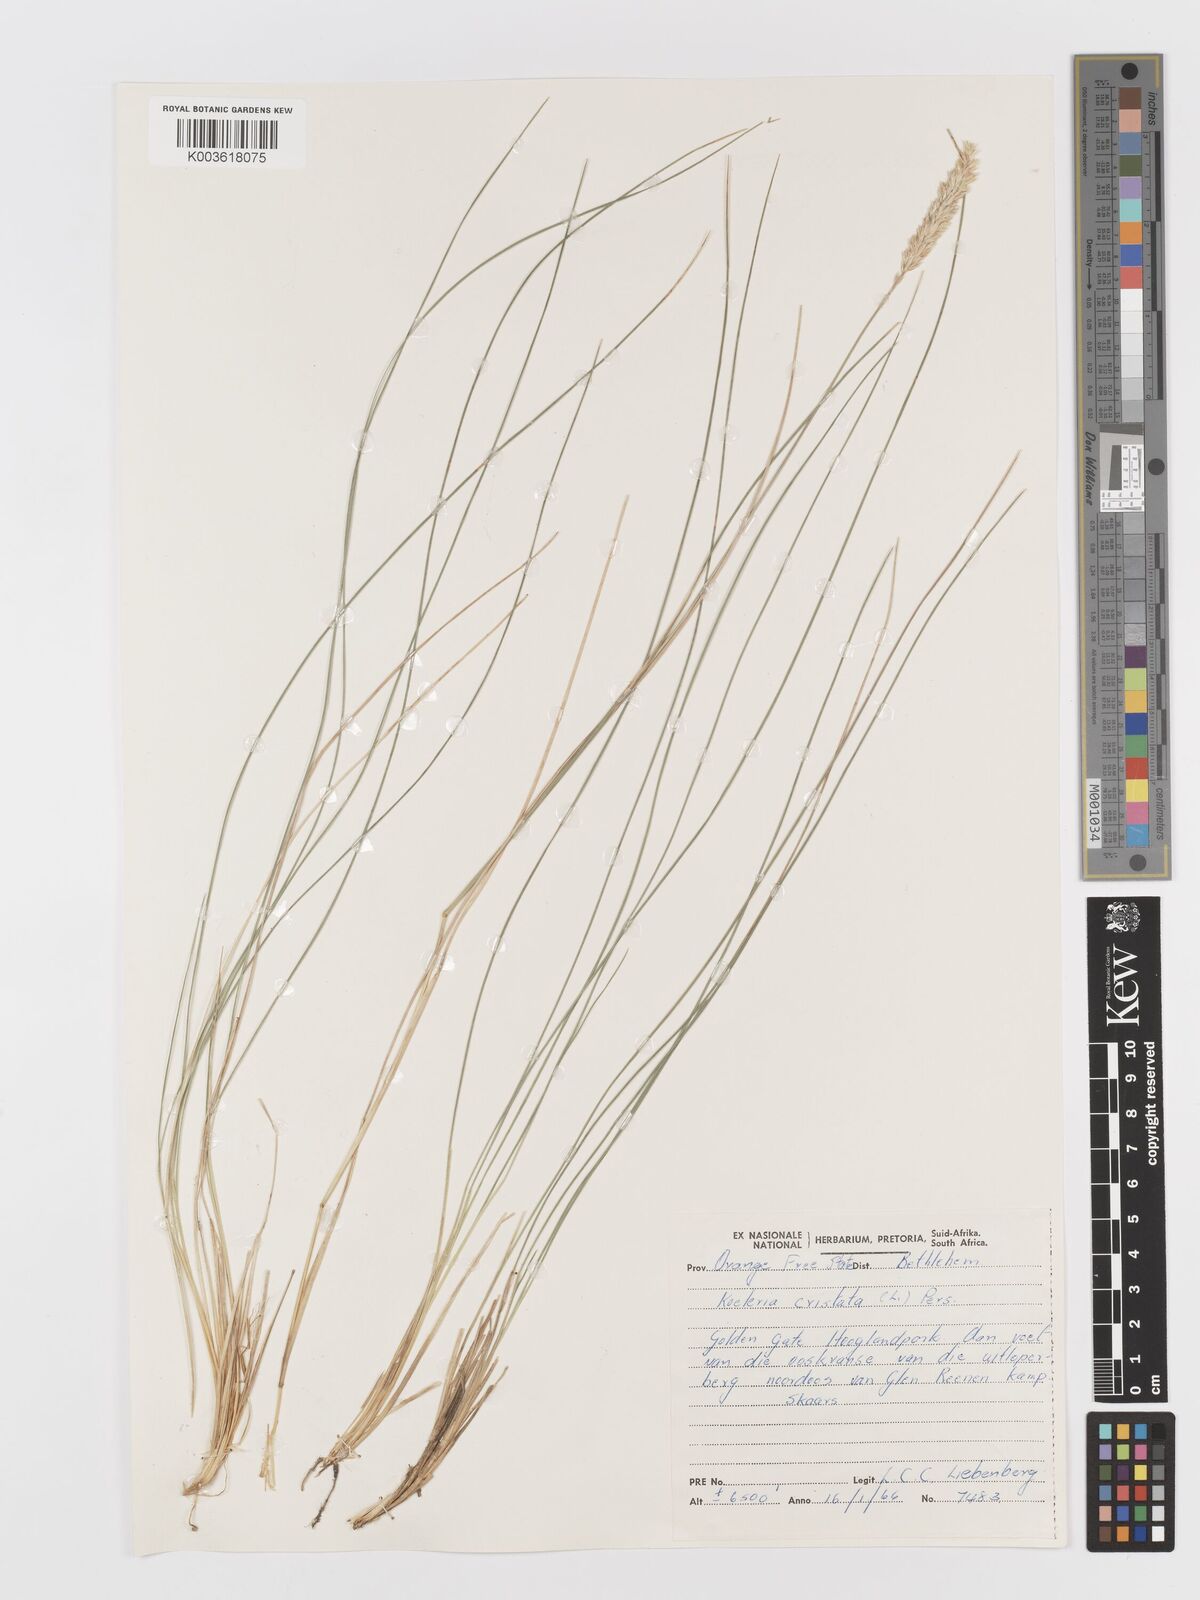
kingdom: Plantae
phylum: Tracheophyta
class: Liliopsida
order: Poales
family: Poaceae
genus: Koeleria
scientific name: Koeleria capensis
